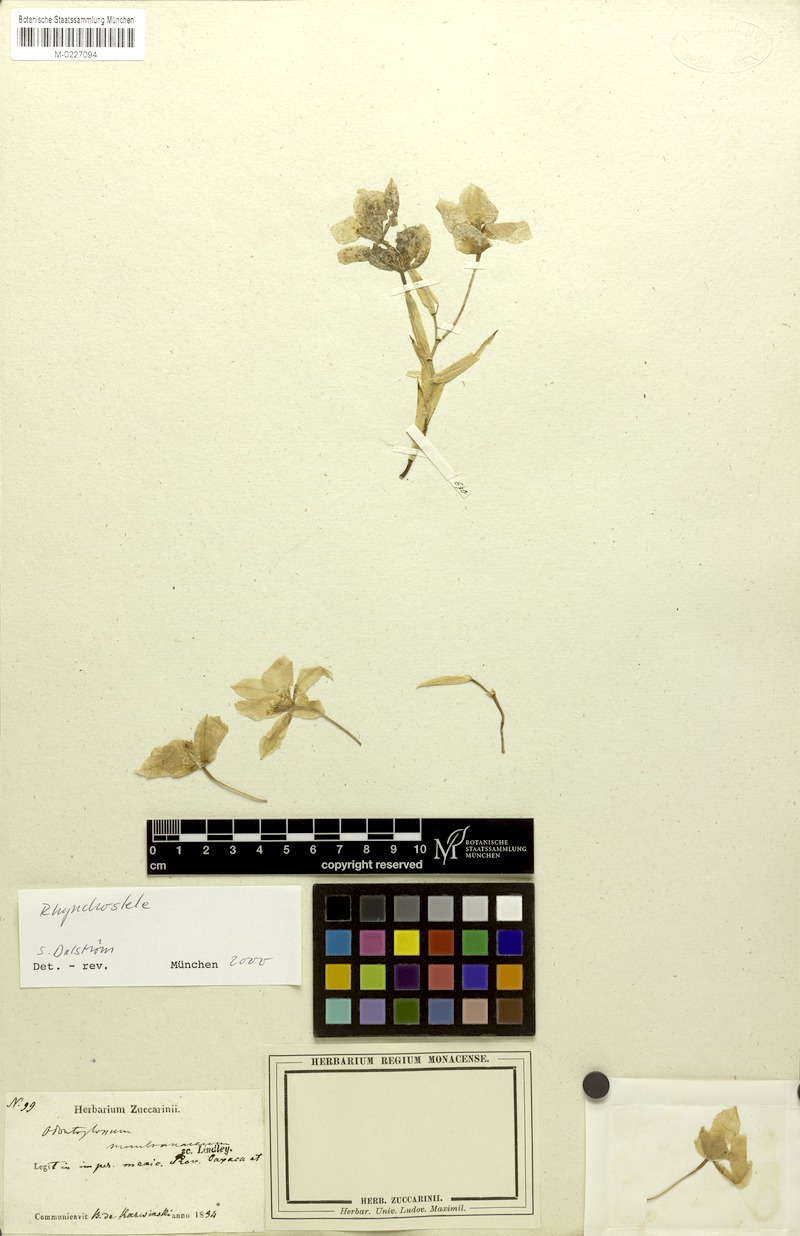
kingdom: Plantae
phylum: Tracheophyta
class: Liliopsida
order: Asparagales
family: Orchidaceae
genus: Rhynchostele
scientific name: Rhynchostele cervantesii
